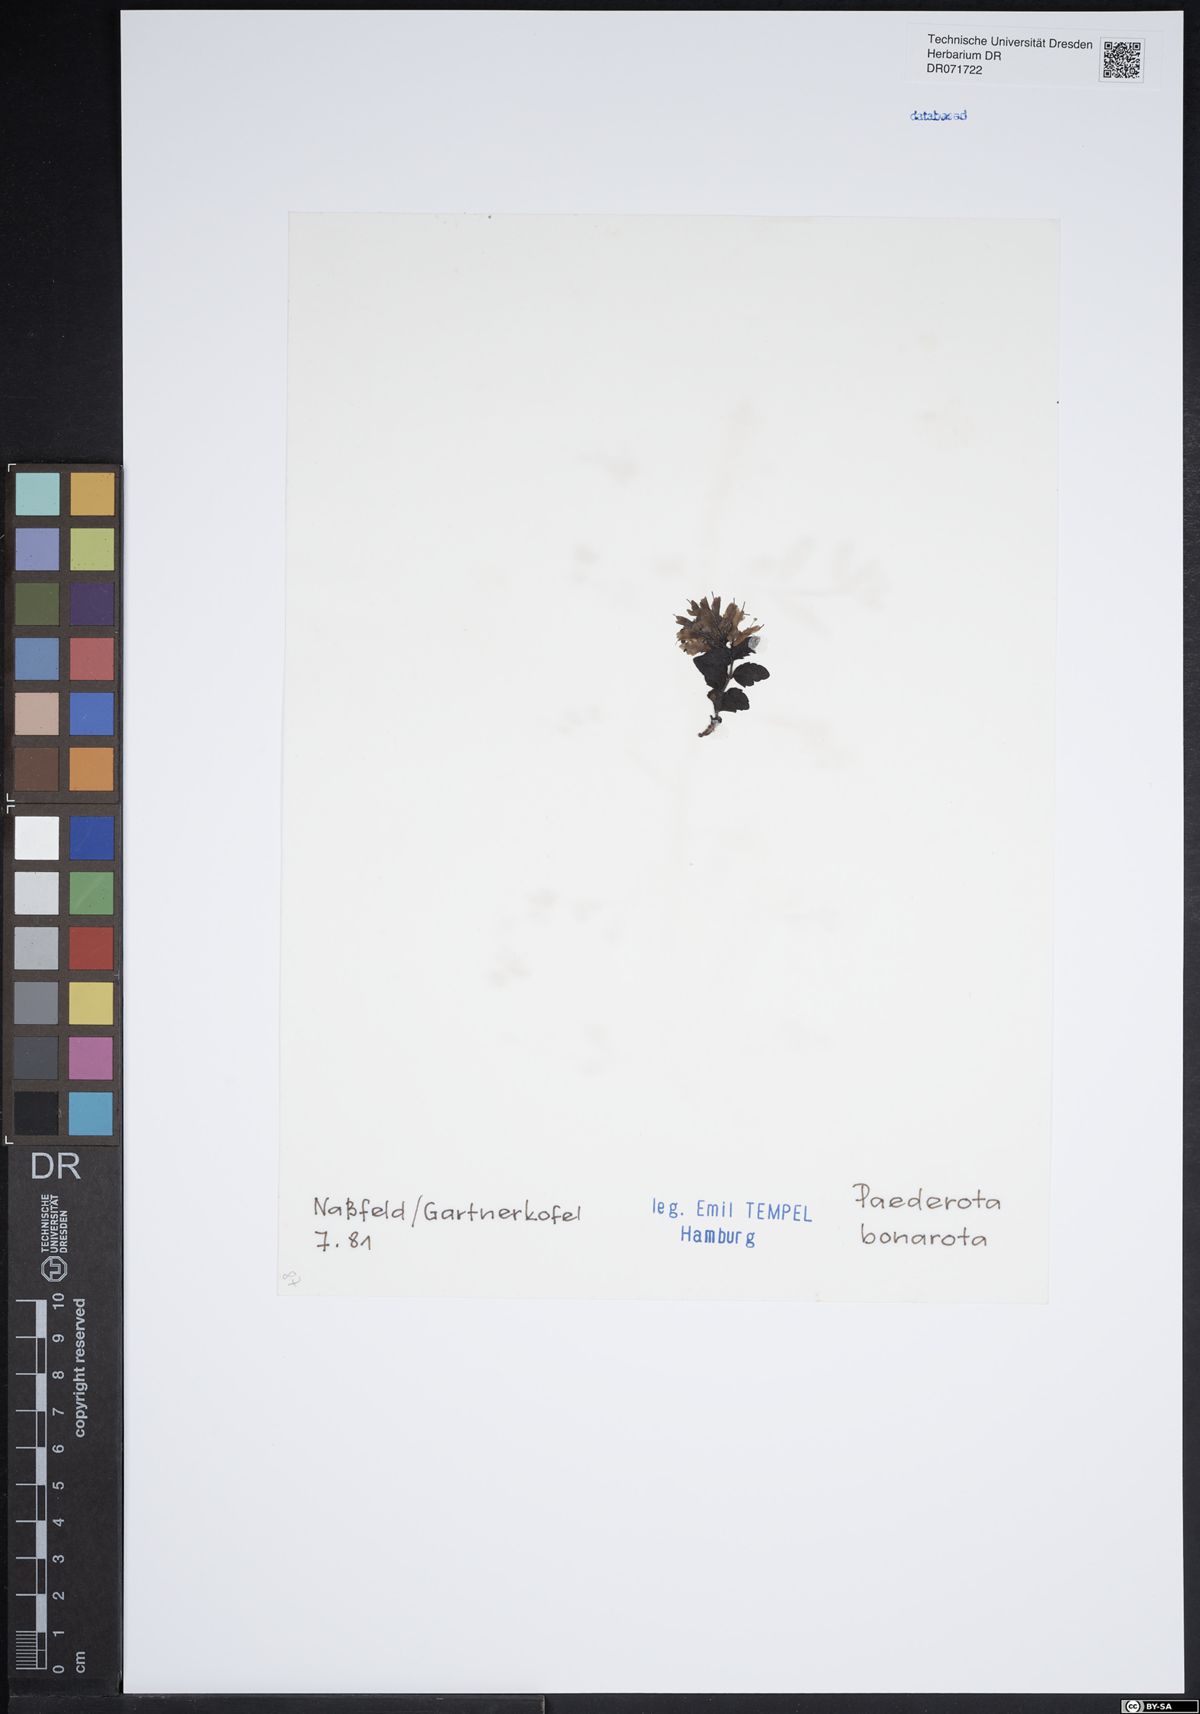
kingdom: Plantae
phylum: Tracheophyta
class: Magnoliopsida
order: Lamiales
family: Plantaginaceae
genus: Paederota
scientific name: Paederota bonarota
